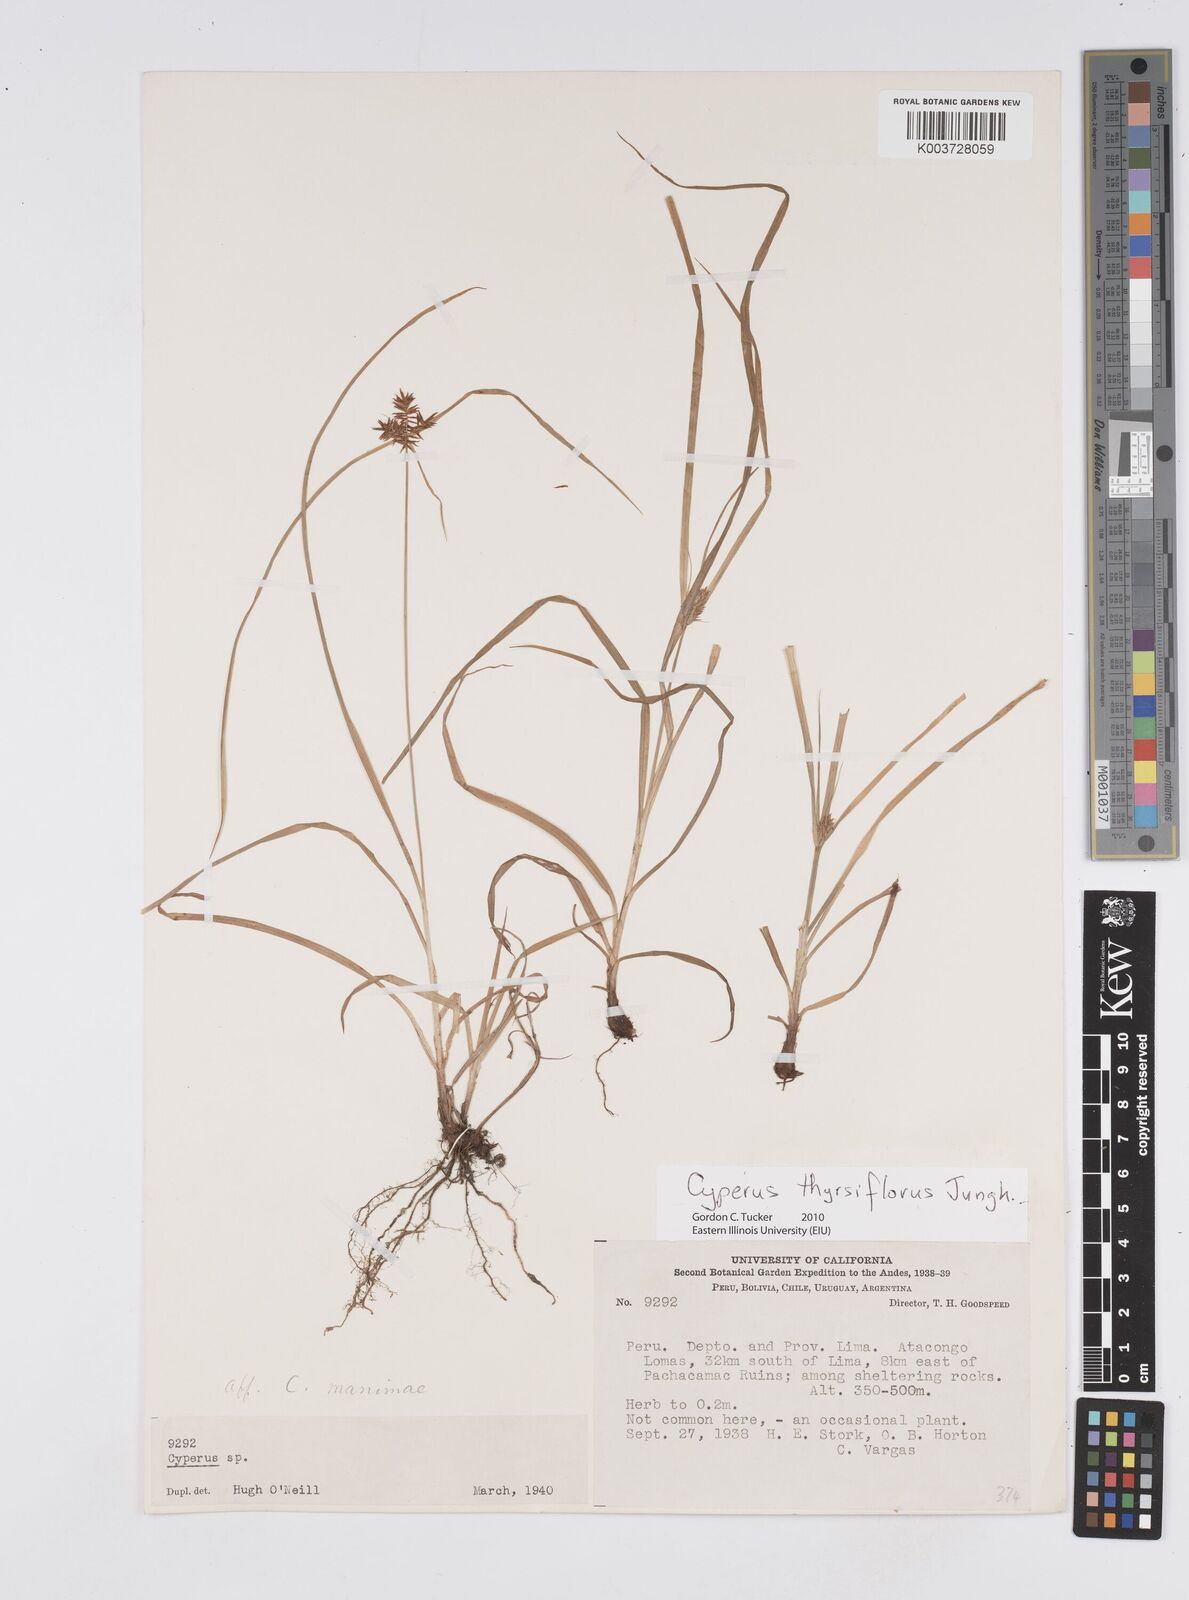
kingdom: Plantae
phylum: Tracheophyta
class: Liliopsida
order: Poales
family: Cyperaceae
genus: Cyperus
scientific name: Cyperus thyrsiflorus
